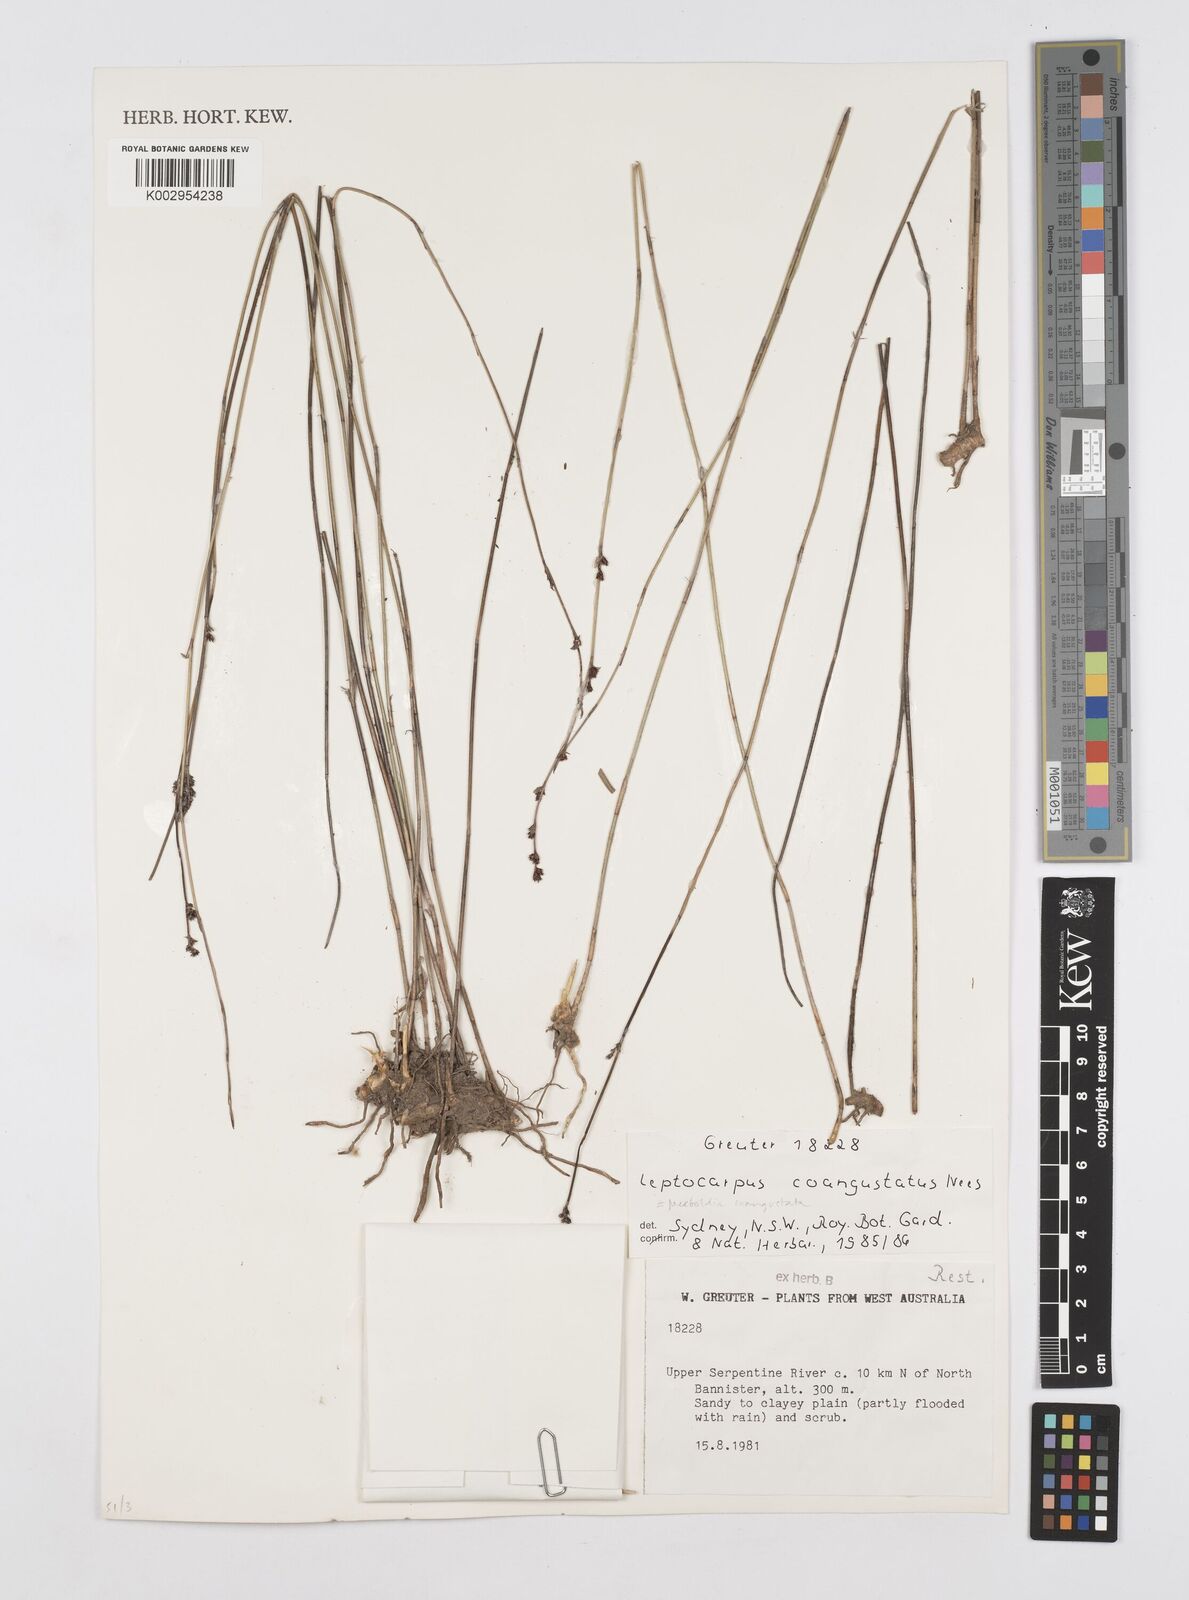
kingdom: Plantae
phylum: Tracheophyta
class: Liliopsida
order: Poales
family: Restionaceae
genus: Leptocarpus
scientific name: Leptocarpus coangustatus
